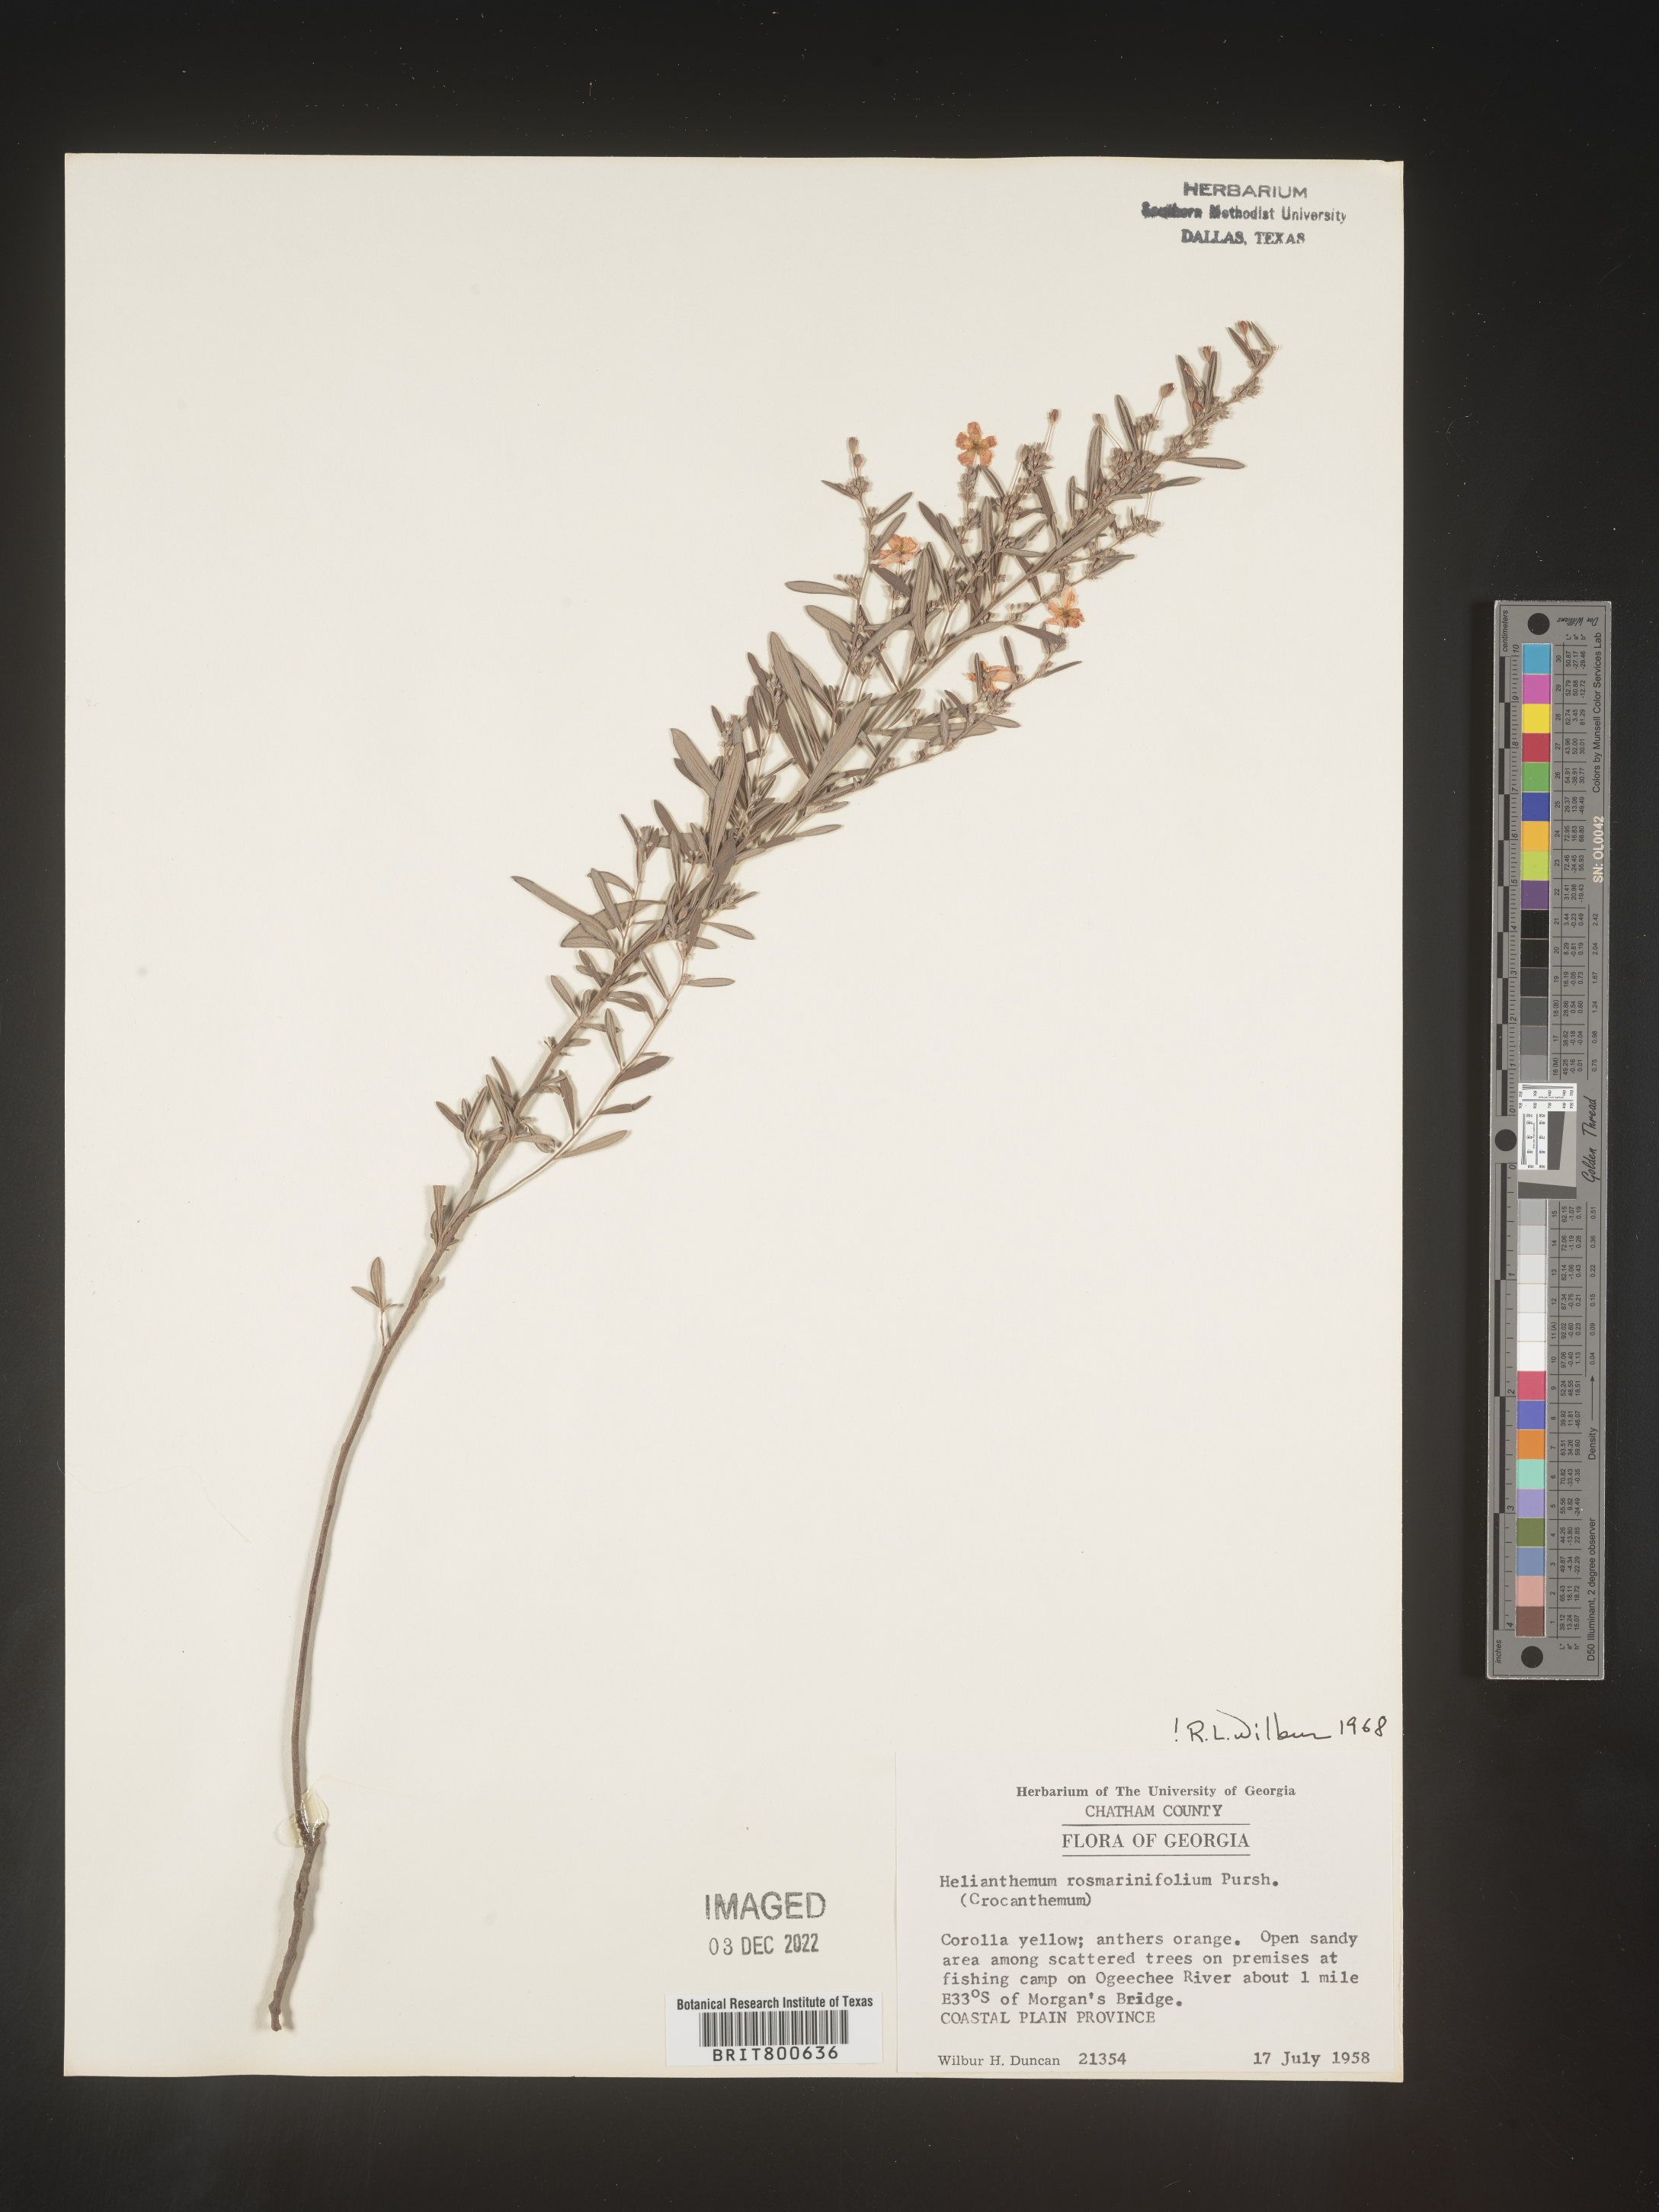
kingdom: Plantae
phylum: Tracheophyta
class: Magnoliopsida
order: Malvales
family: Cistaceae
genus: Helianthemum
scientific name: Helianthemum
